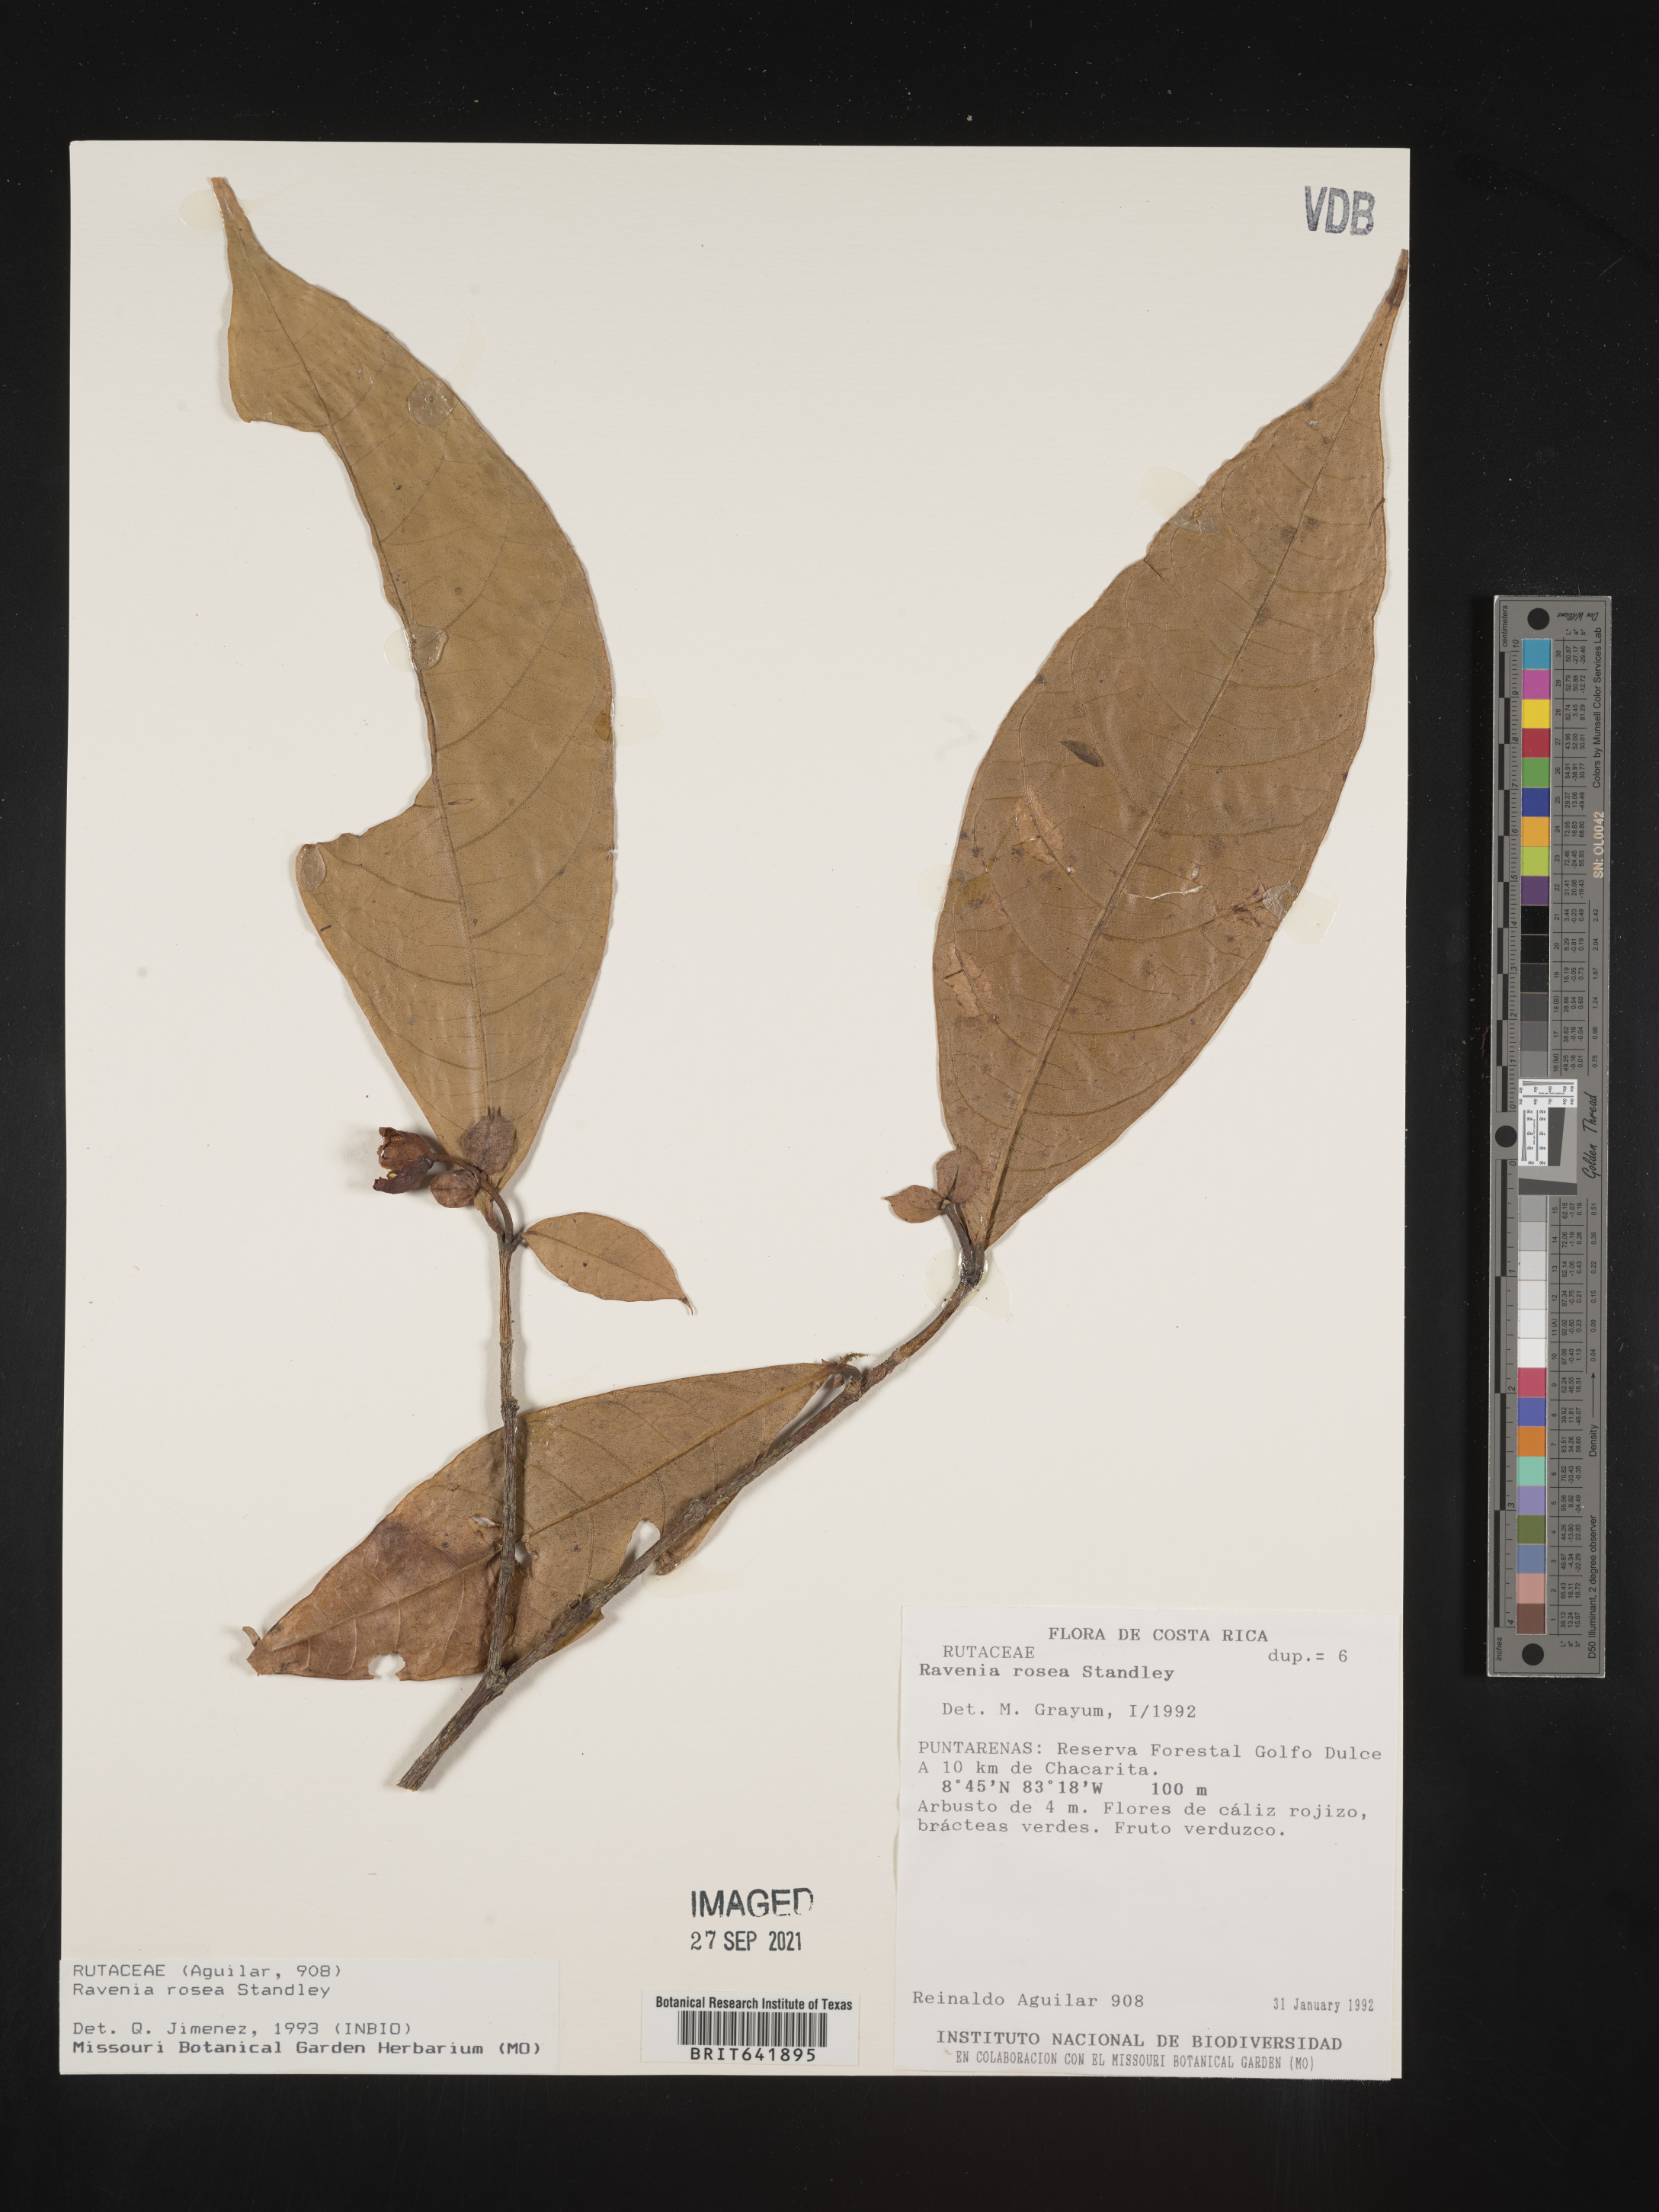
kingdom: Plantae
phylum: Tracheophyta
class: Magnoliopsida
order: Sapindales
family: Rutaceae
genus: Ravenia
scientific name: Ravenia
